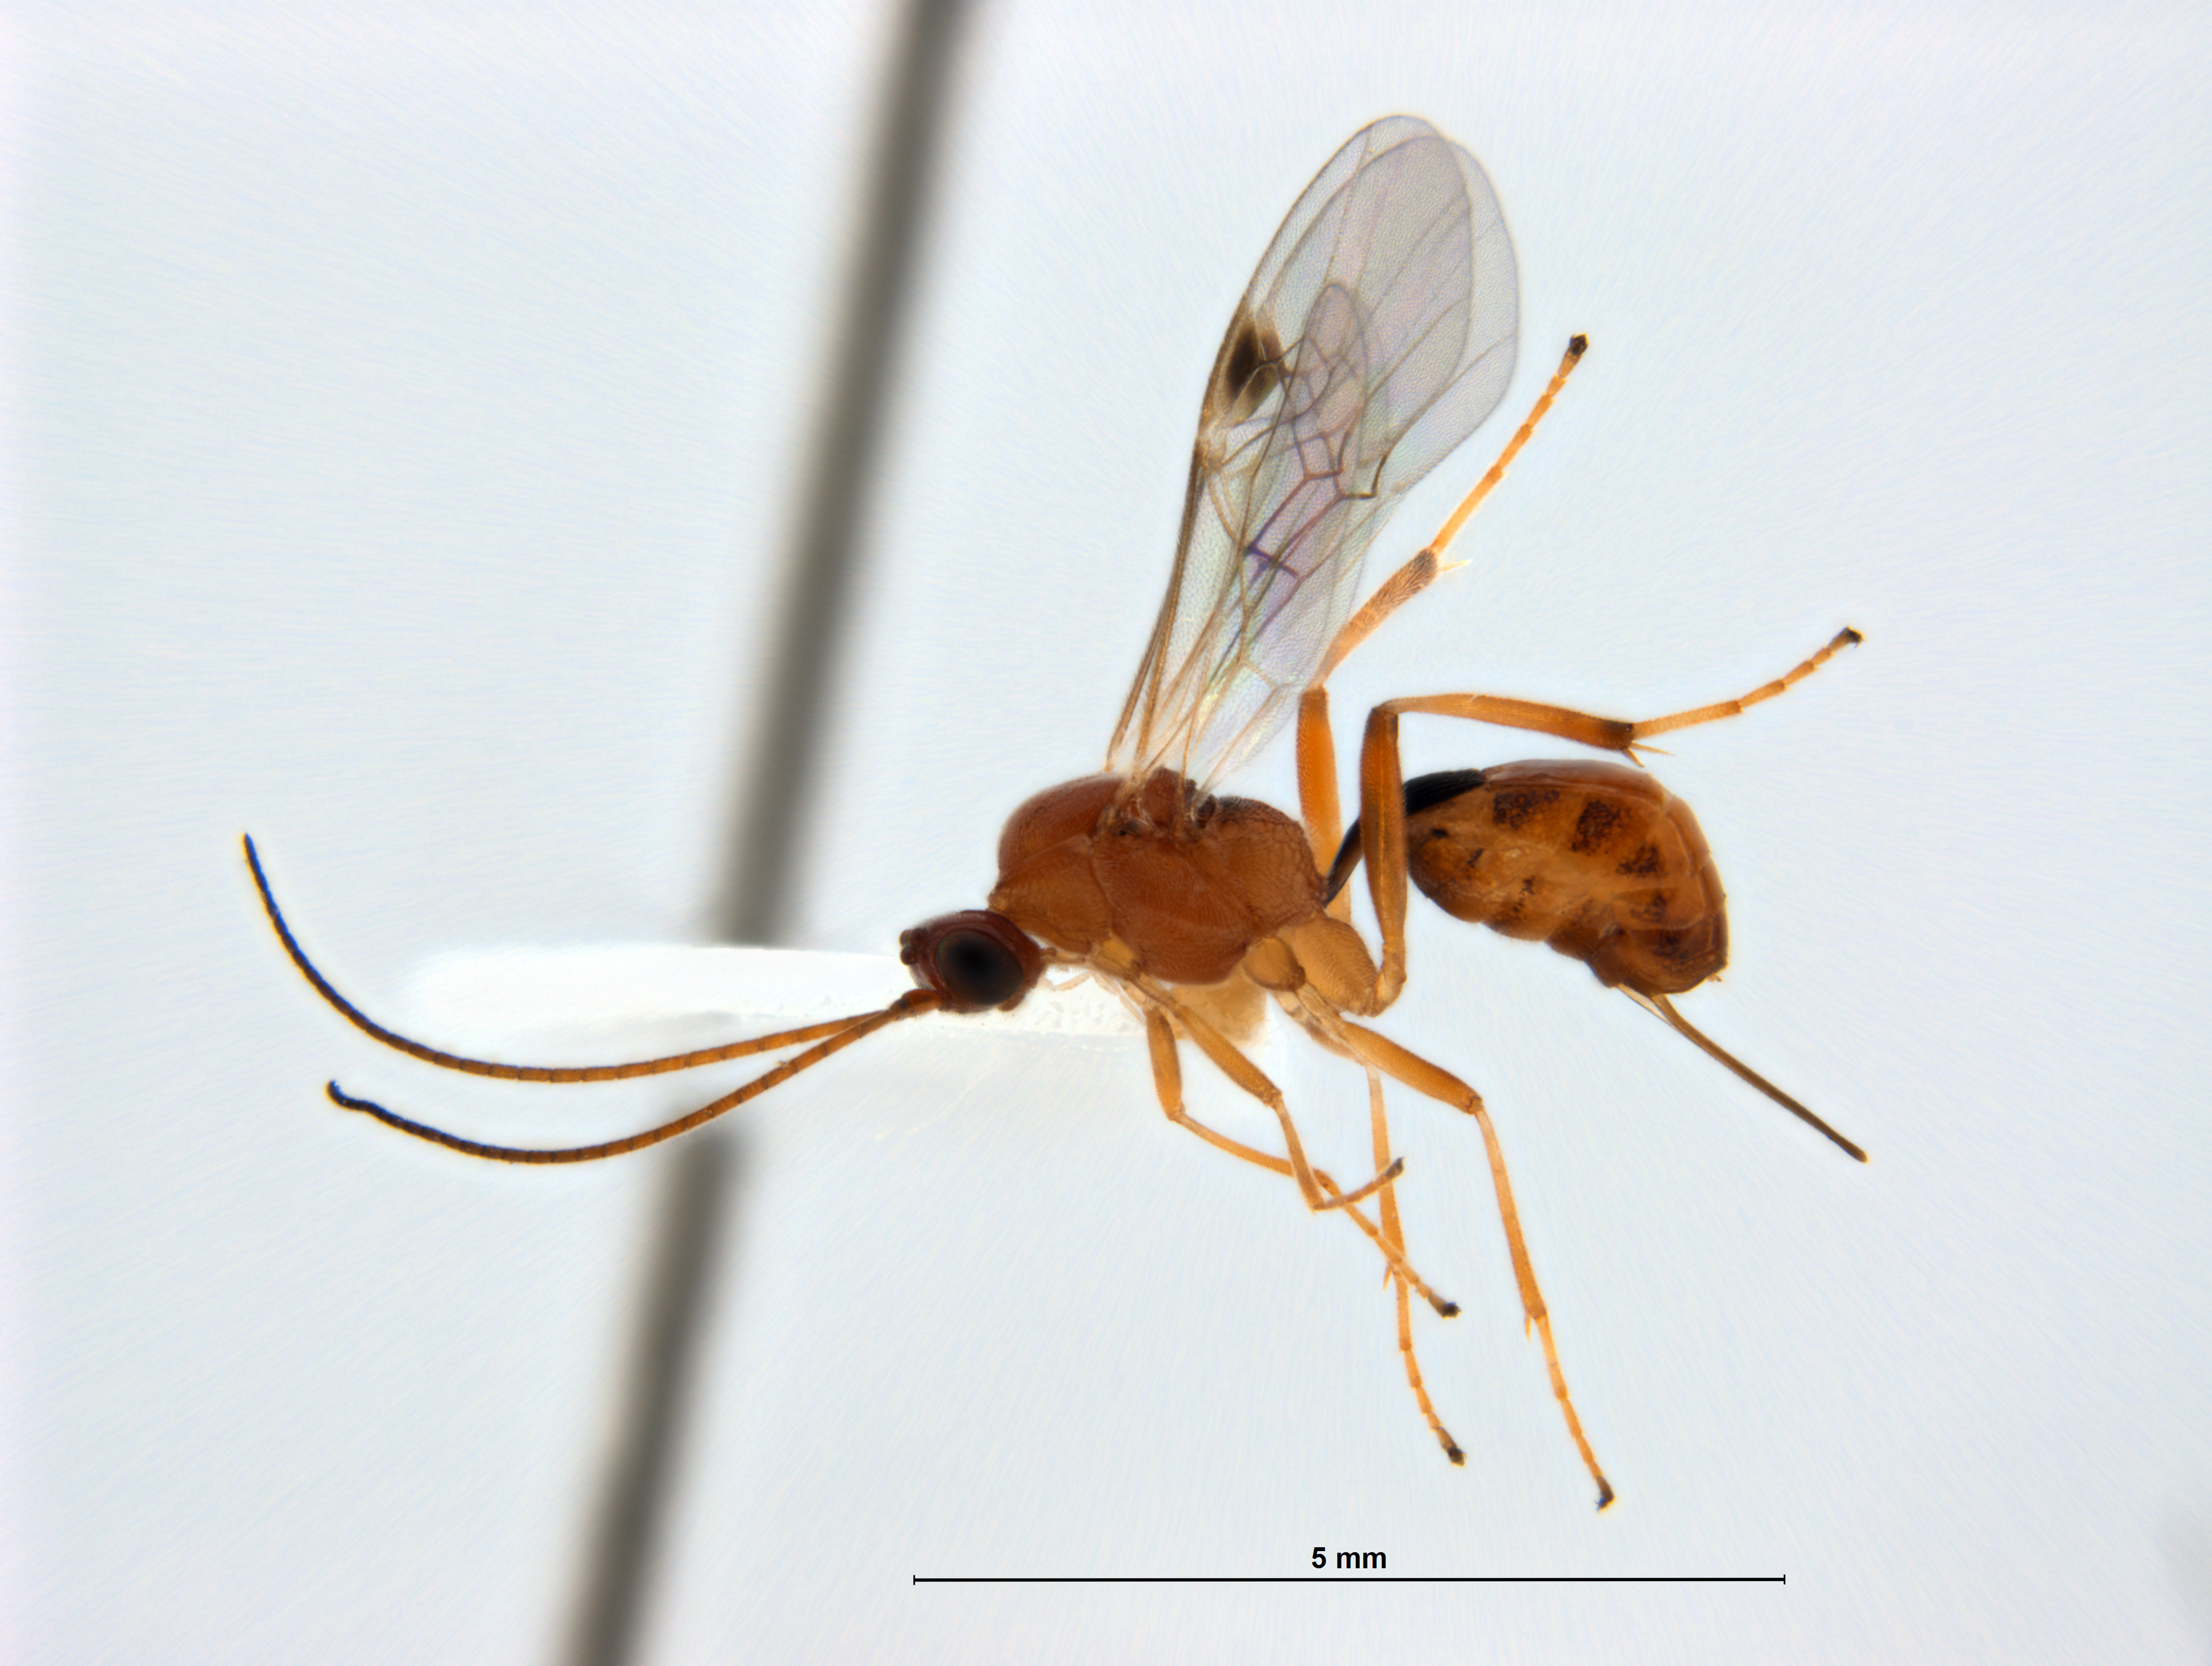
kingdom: Animalia
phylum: Arthropoda
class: Insecta
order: Hymenoptera
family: Braconidae
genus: Meteorus
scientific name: Meteorus pulchricornis
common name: Braconid wasp
